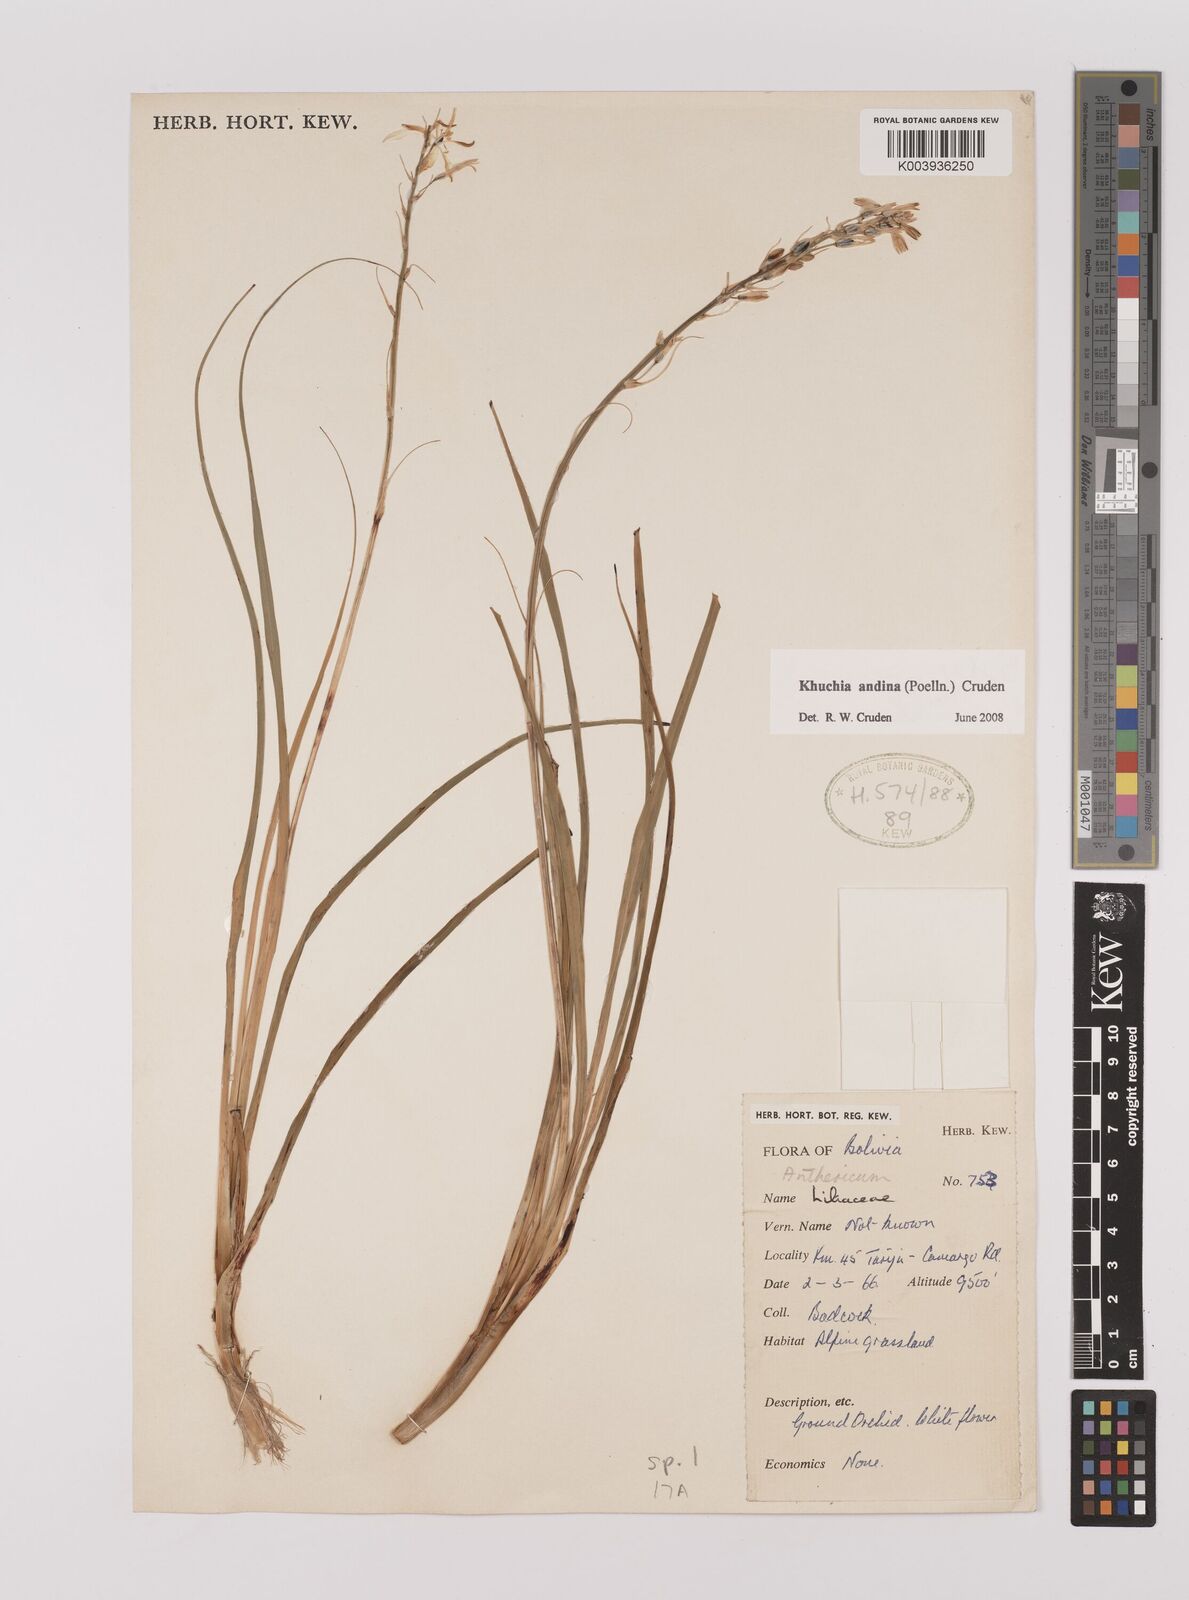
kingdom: Plantae
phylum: Tracheophyta
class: Liliopsida
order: Asparagales
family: Asparagaceae
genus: Echeandia
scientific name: Echeandia
